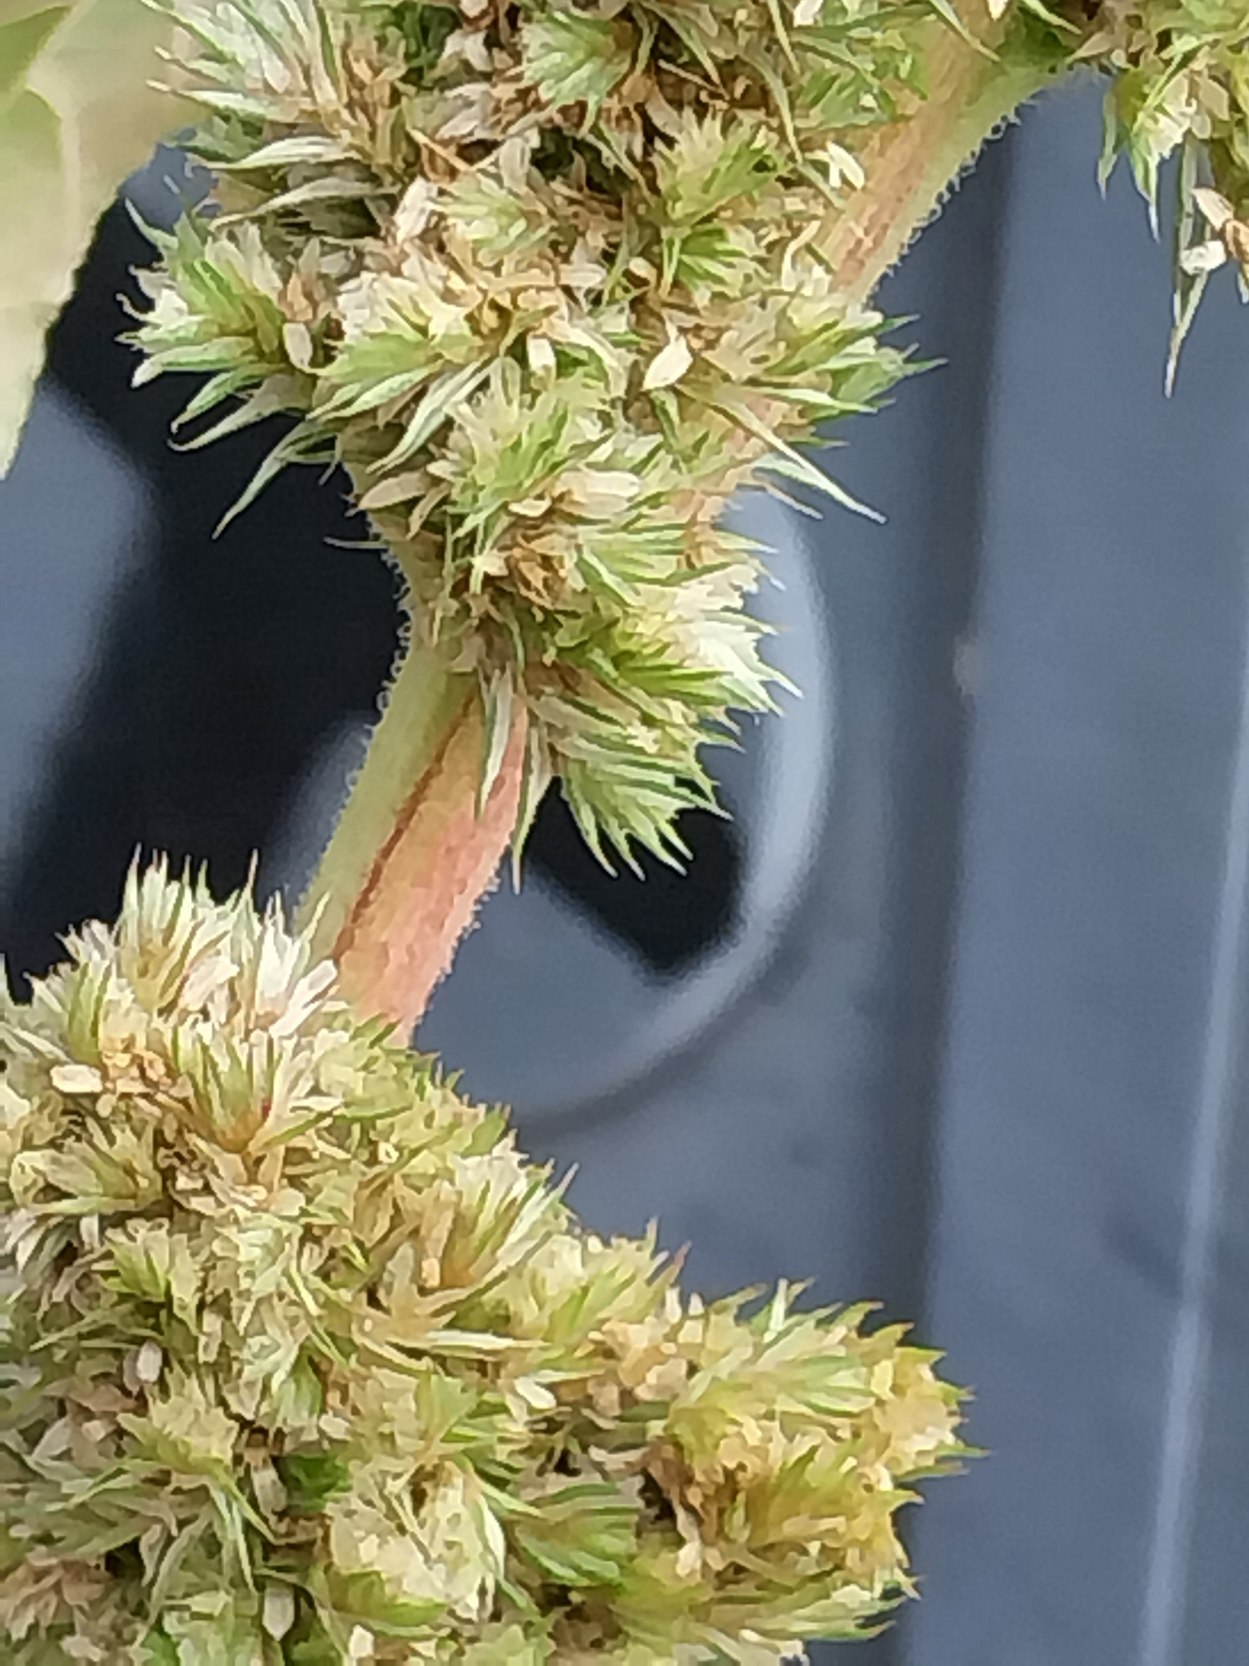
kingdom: Plantae
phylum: Tracheophyta
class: Magnoliopsida
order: Caryophyllales
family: Amaranthaceae
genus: Amaranthus
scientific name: Amaranthus retroflexus
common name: Opret amarant
